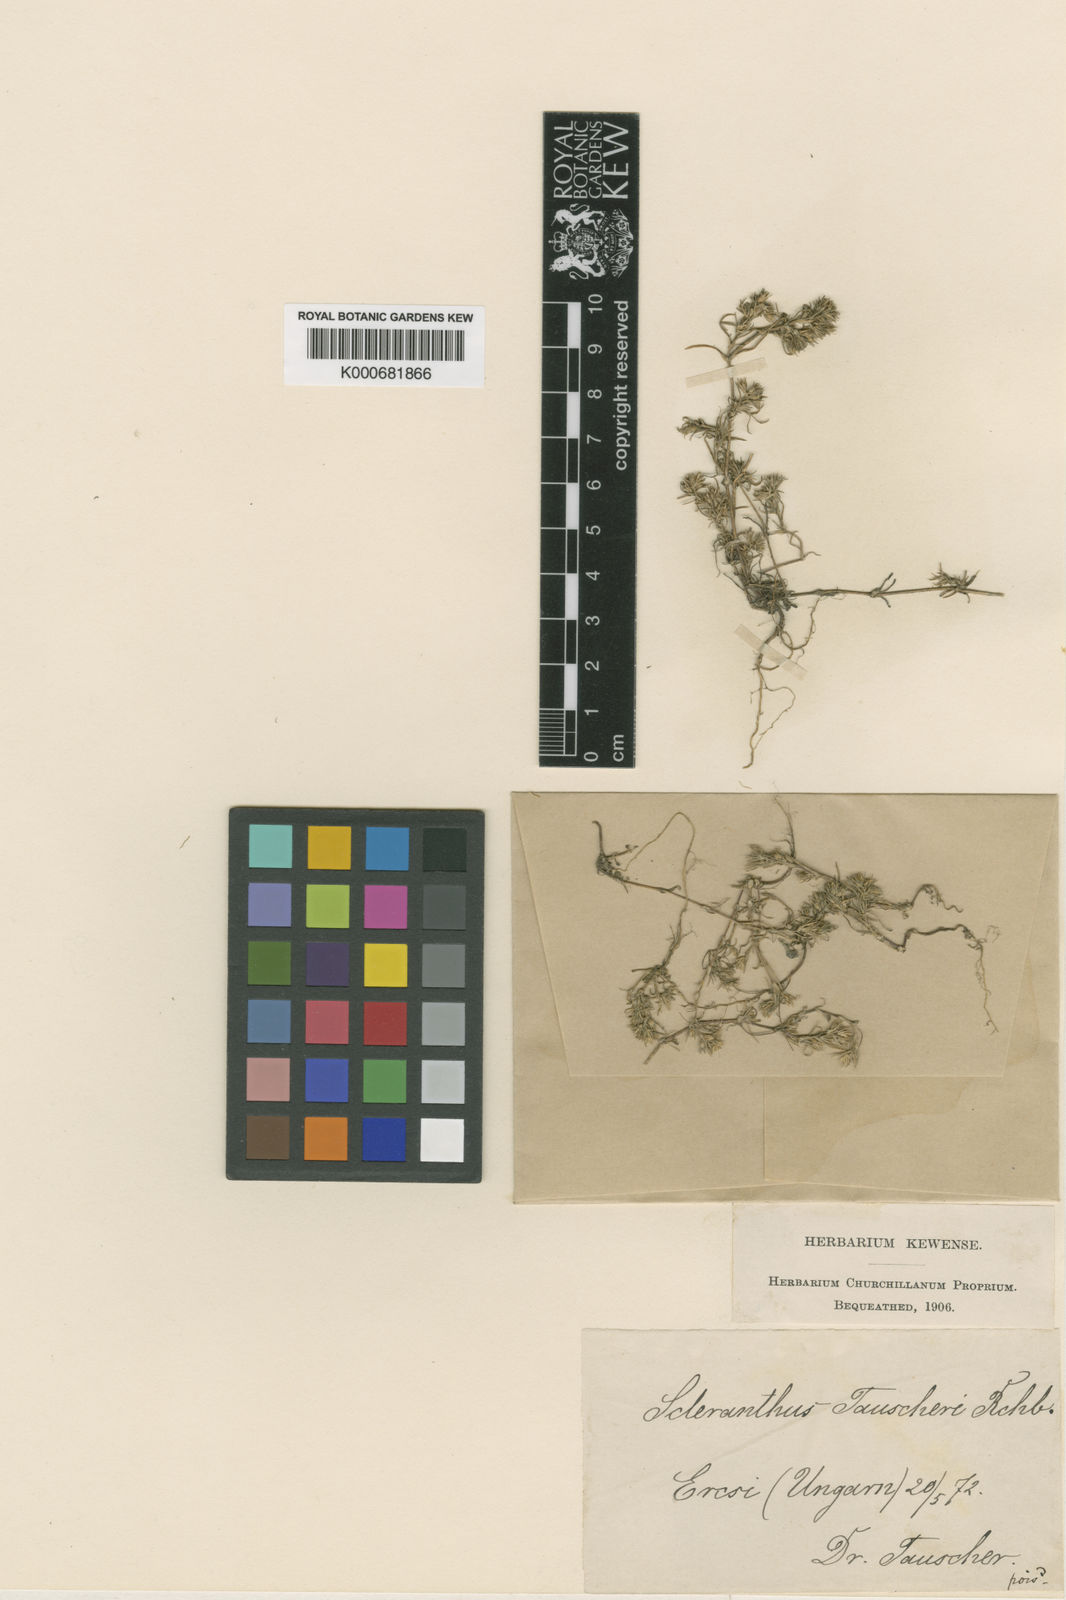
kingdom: Plantae
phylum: Tracheophyta
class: Magnoliopsida
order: Caryophyllales
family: Caryophyllaceae
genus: Scleranthus
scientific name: Scleranthus annuus
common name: Annual knawel
